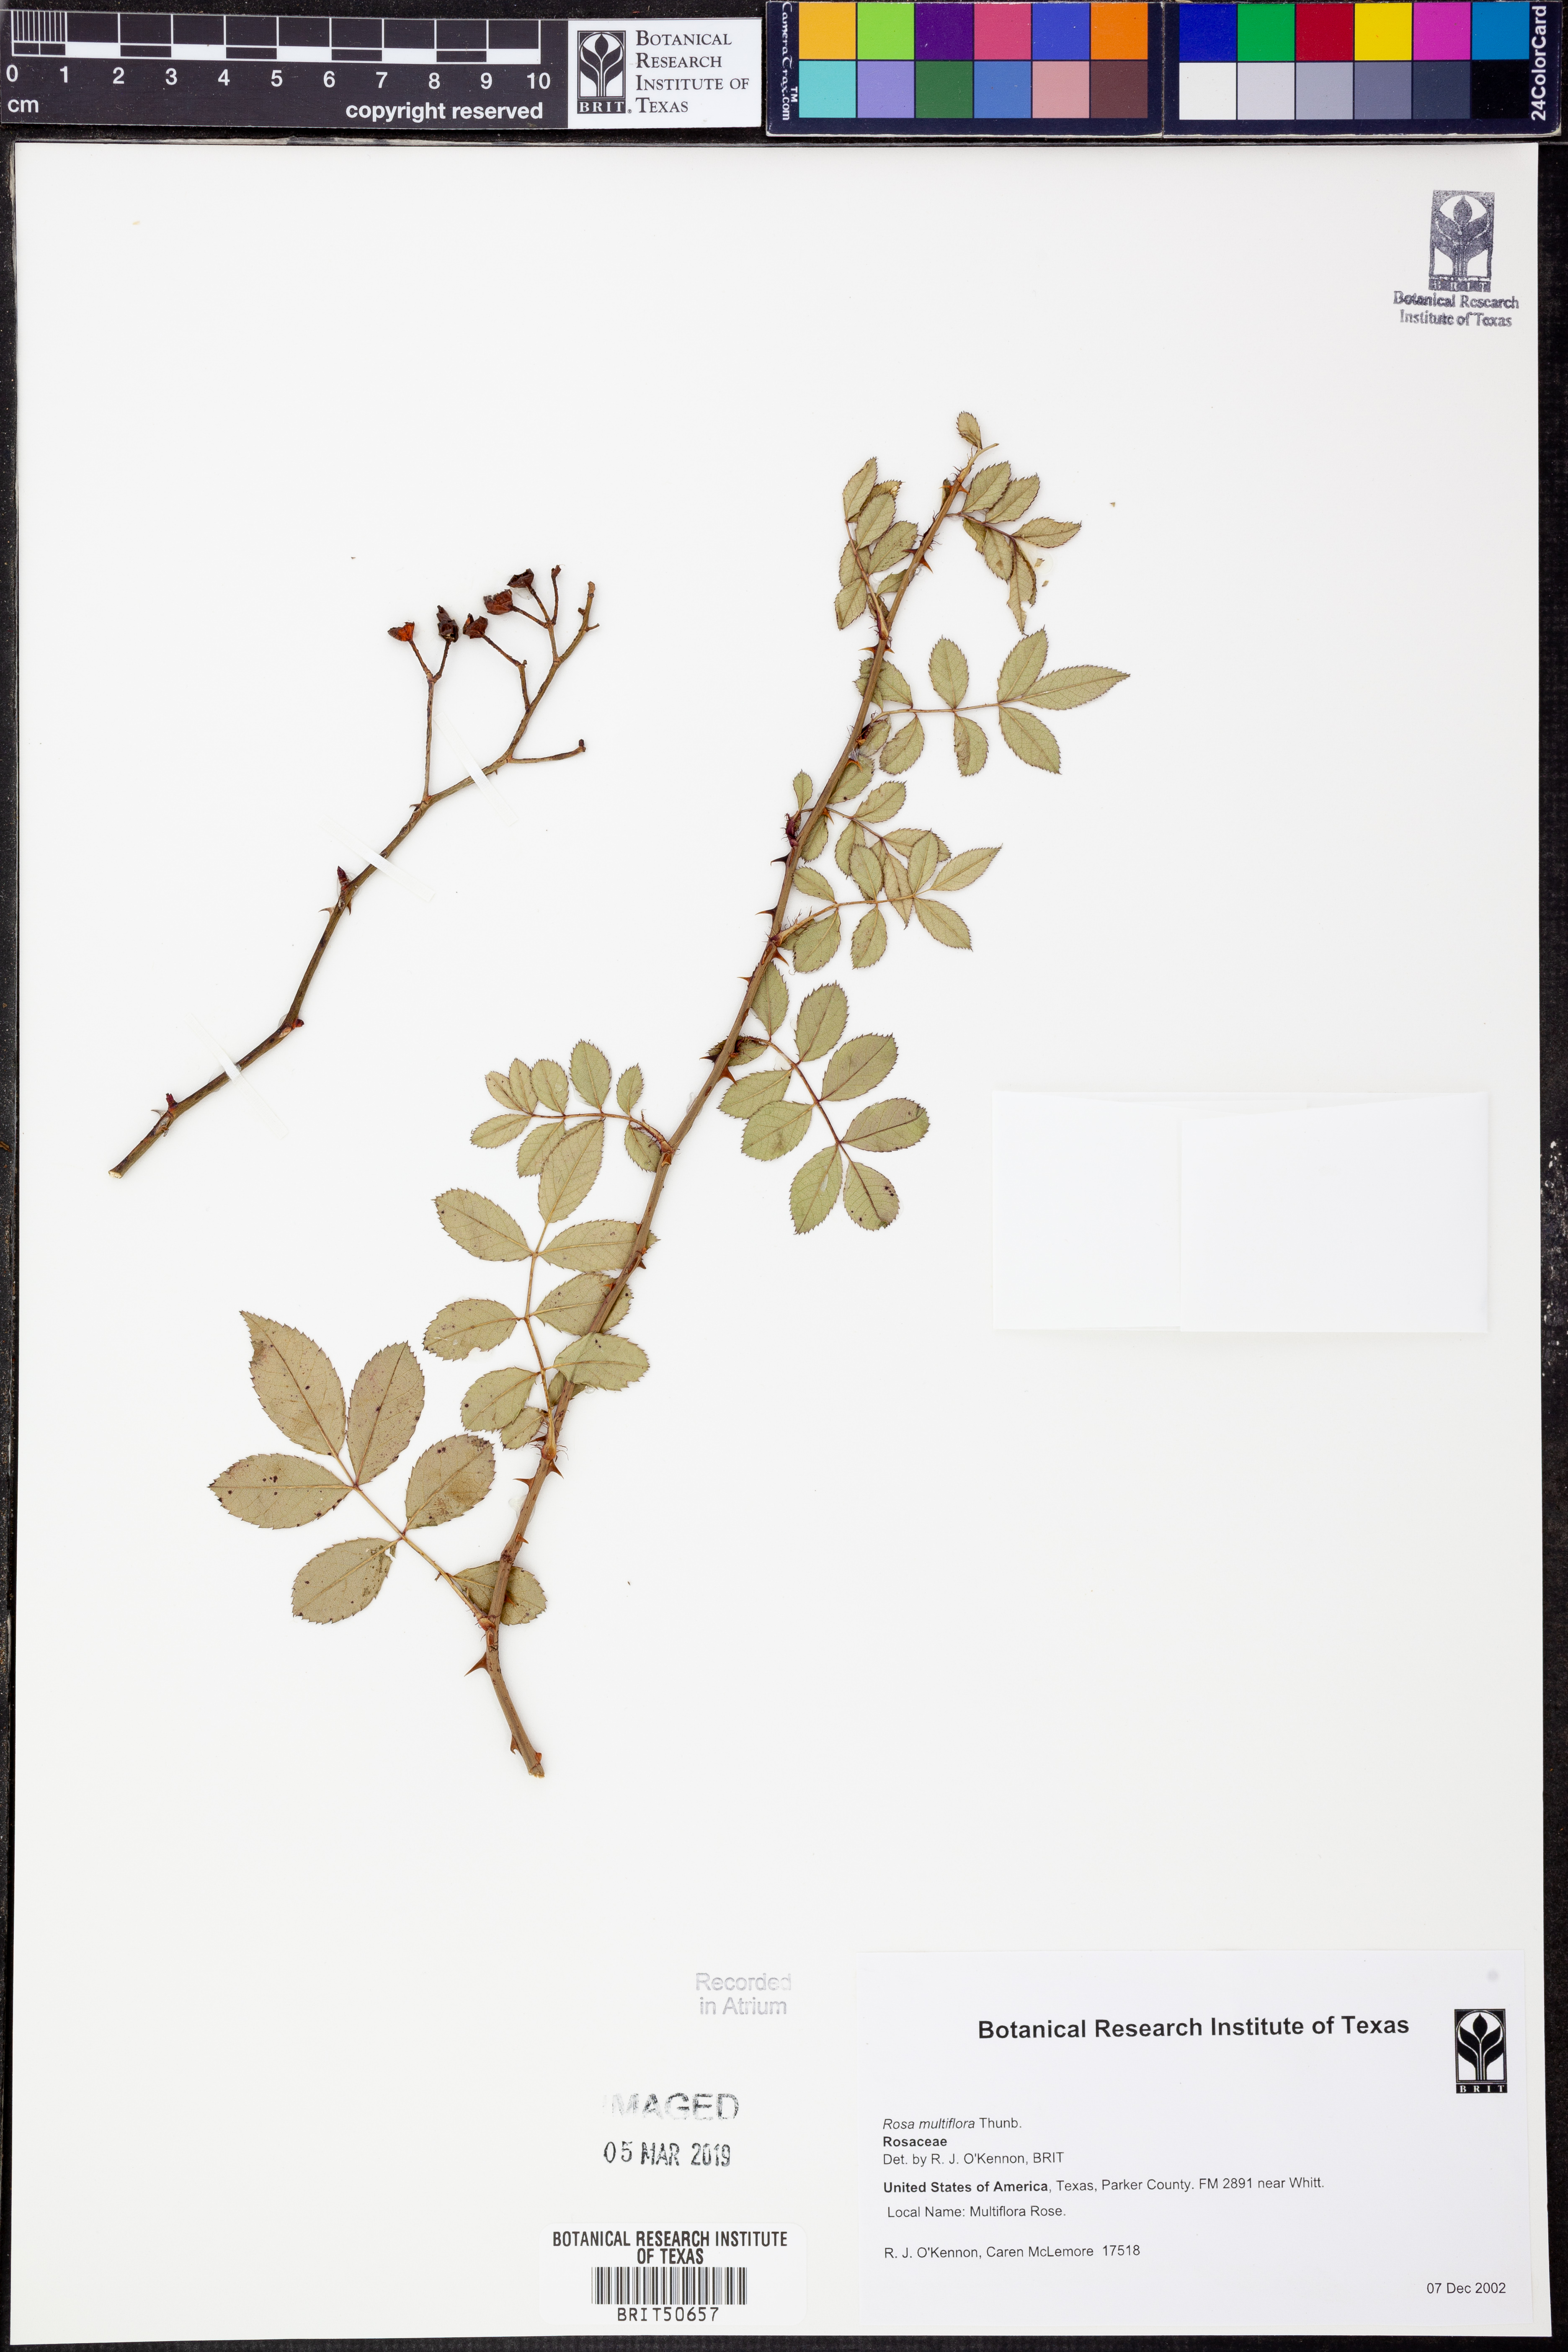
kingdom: Plantae
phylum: Tracheophyta
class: Magnoliopsida
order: Rosales
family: Rosaceae
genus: Rosa
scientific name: Rosa multiflora
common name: Multiflora rose
